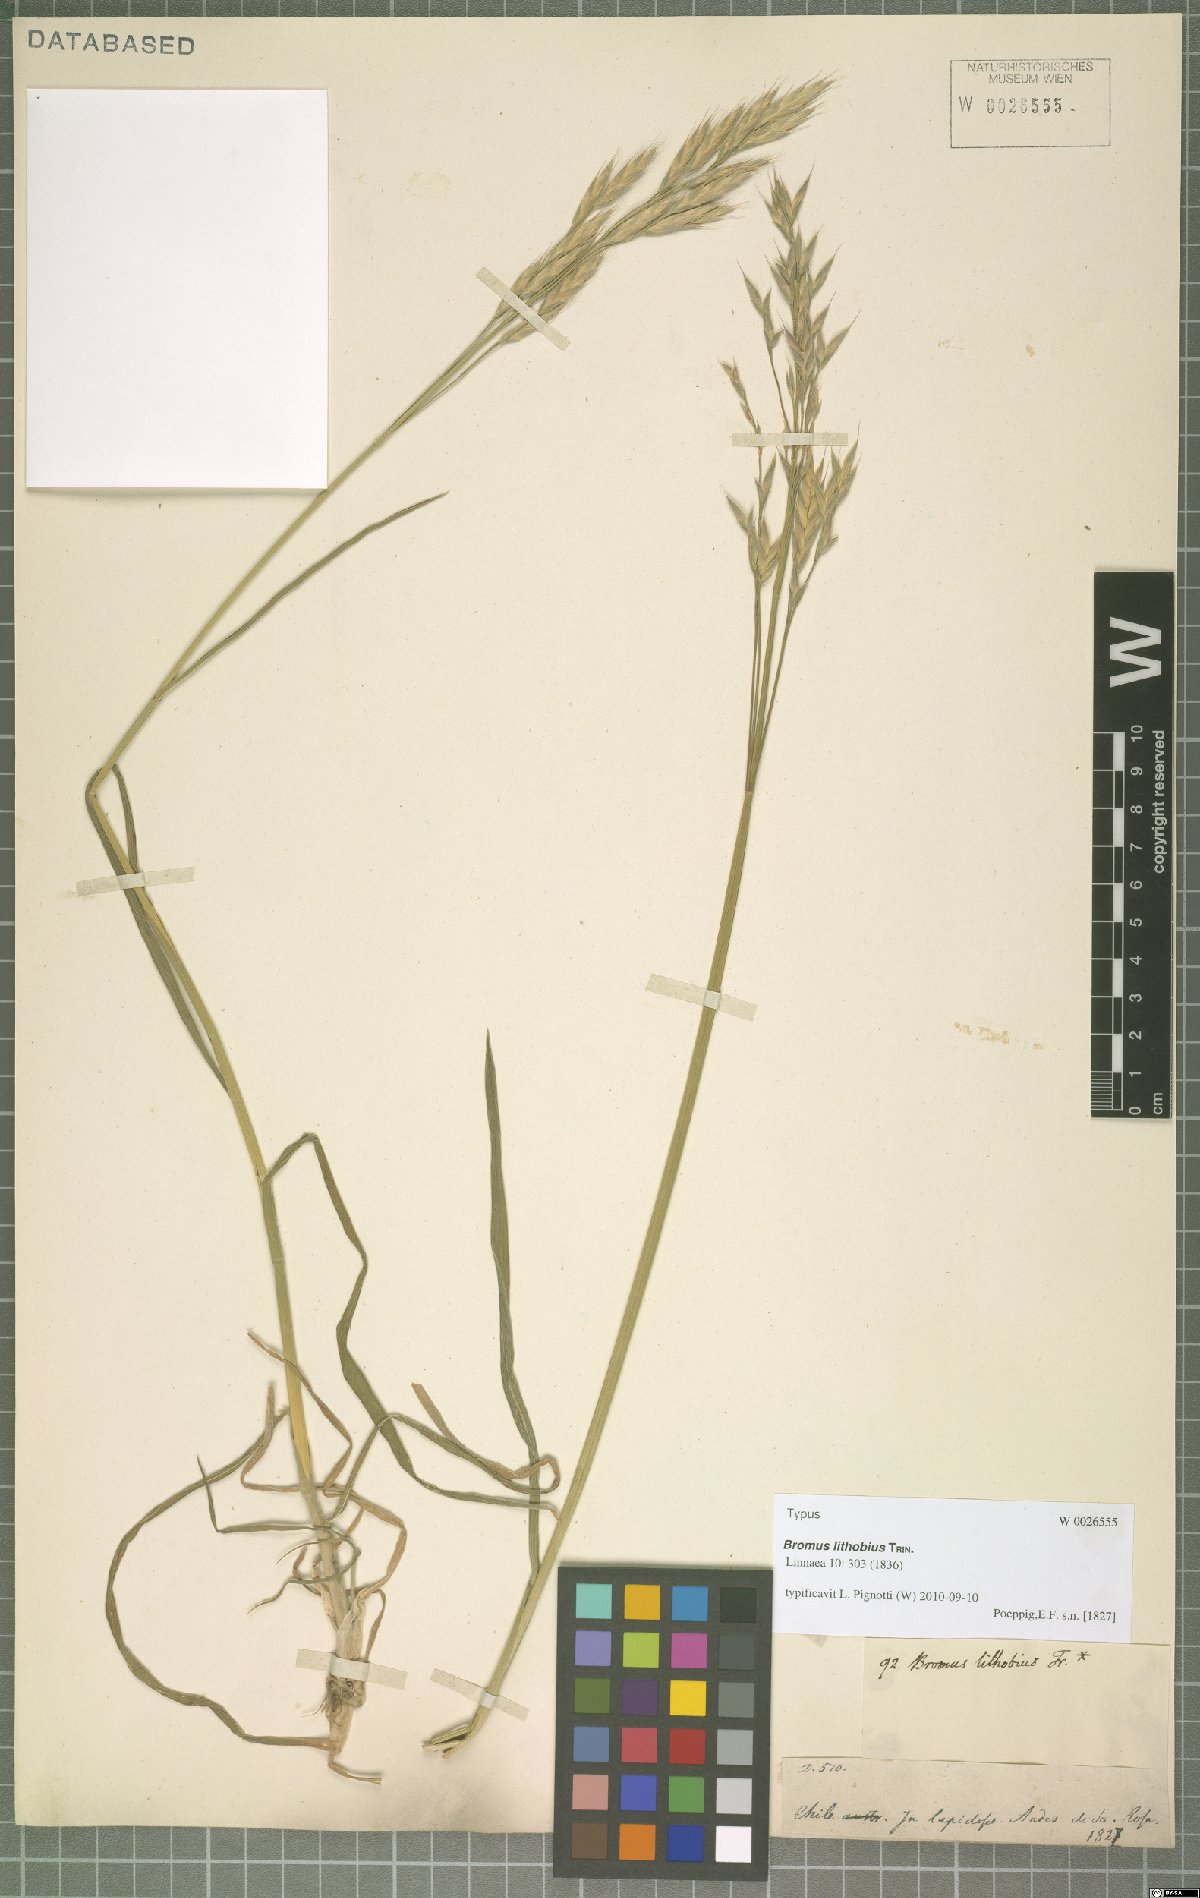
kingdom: Plantae
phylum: Tracheophyta
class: Liliopsida
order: Poales
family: Poaceae
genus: Bromus
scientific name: Bromus lithobius
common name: Chilean brome
